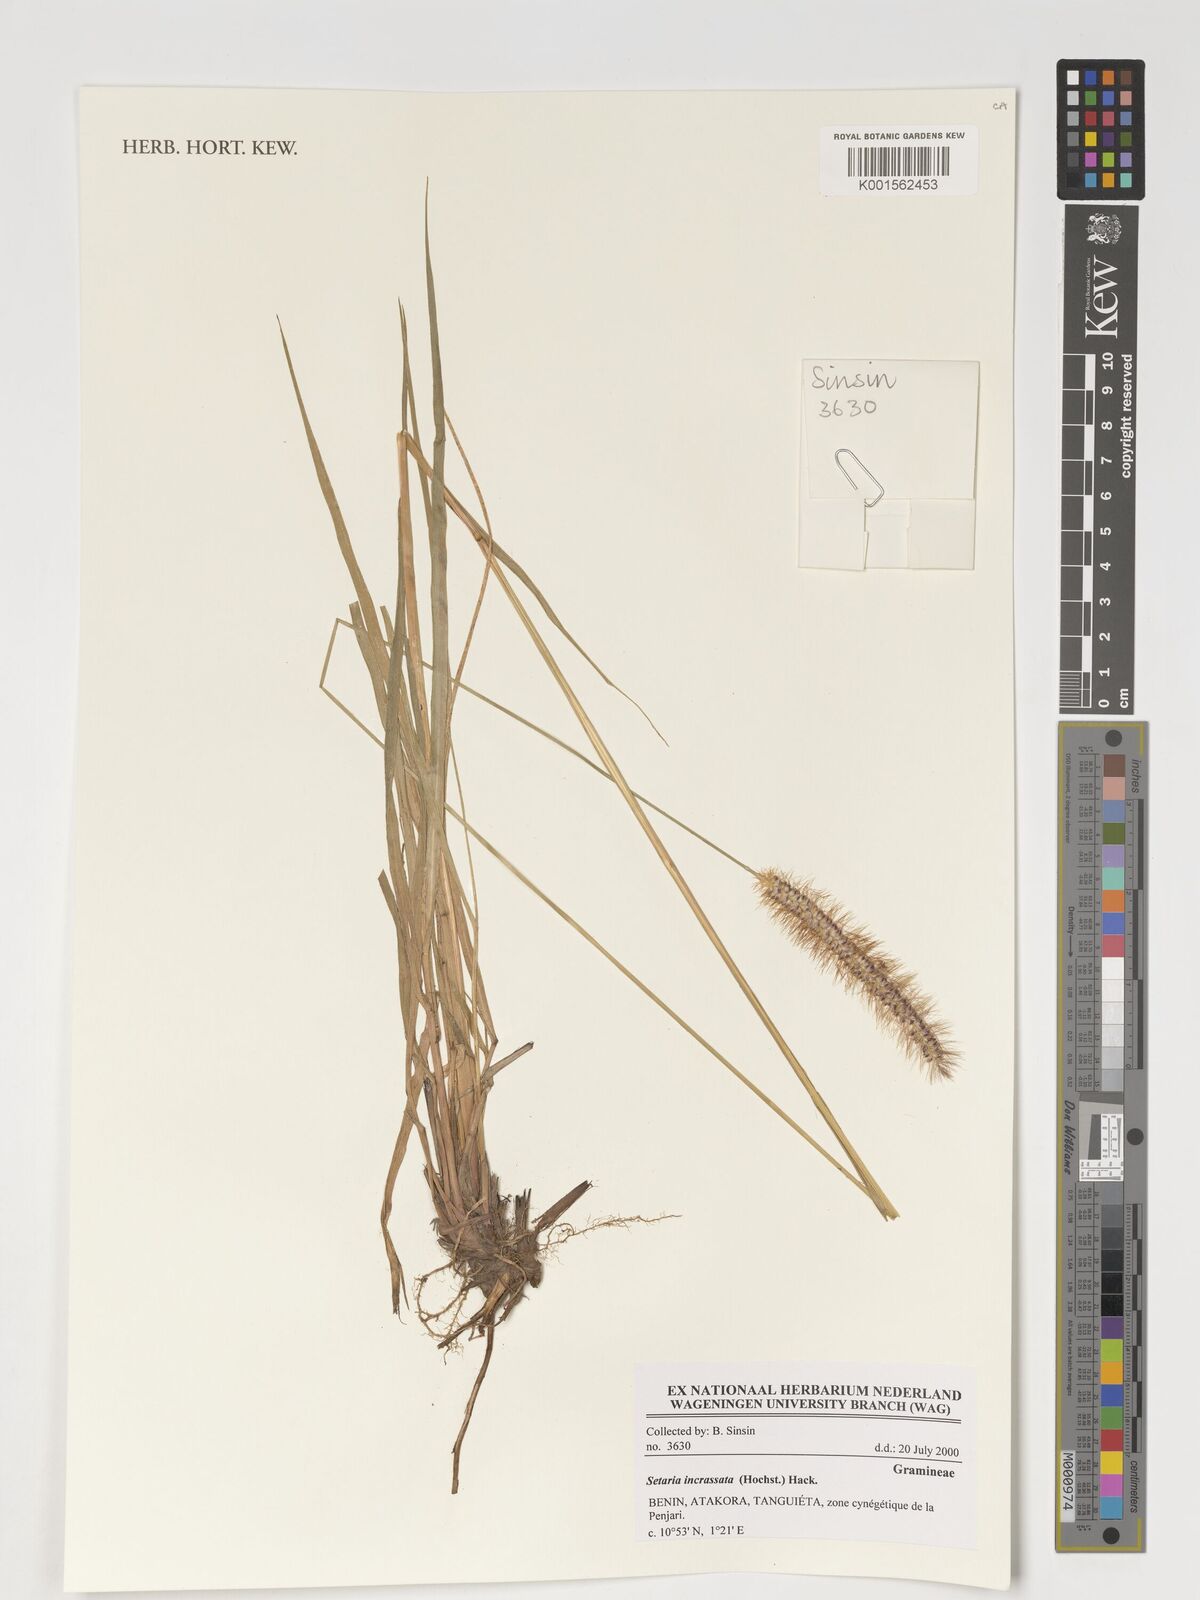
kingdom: Plantae
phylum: Tracheophyta
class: Liliopsida
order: Poales
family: Poaceae
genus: Setaria
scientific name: Setaria incrassata
